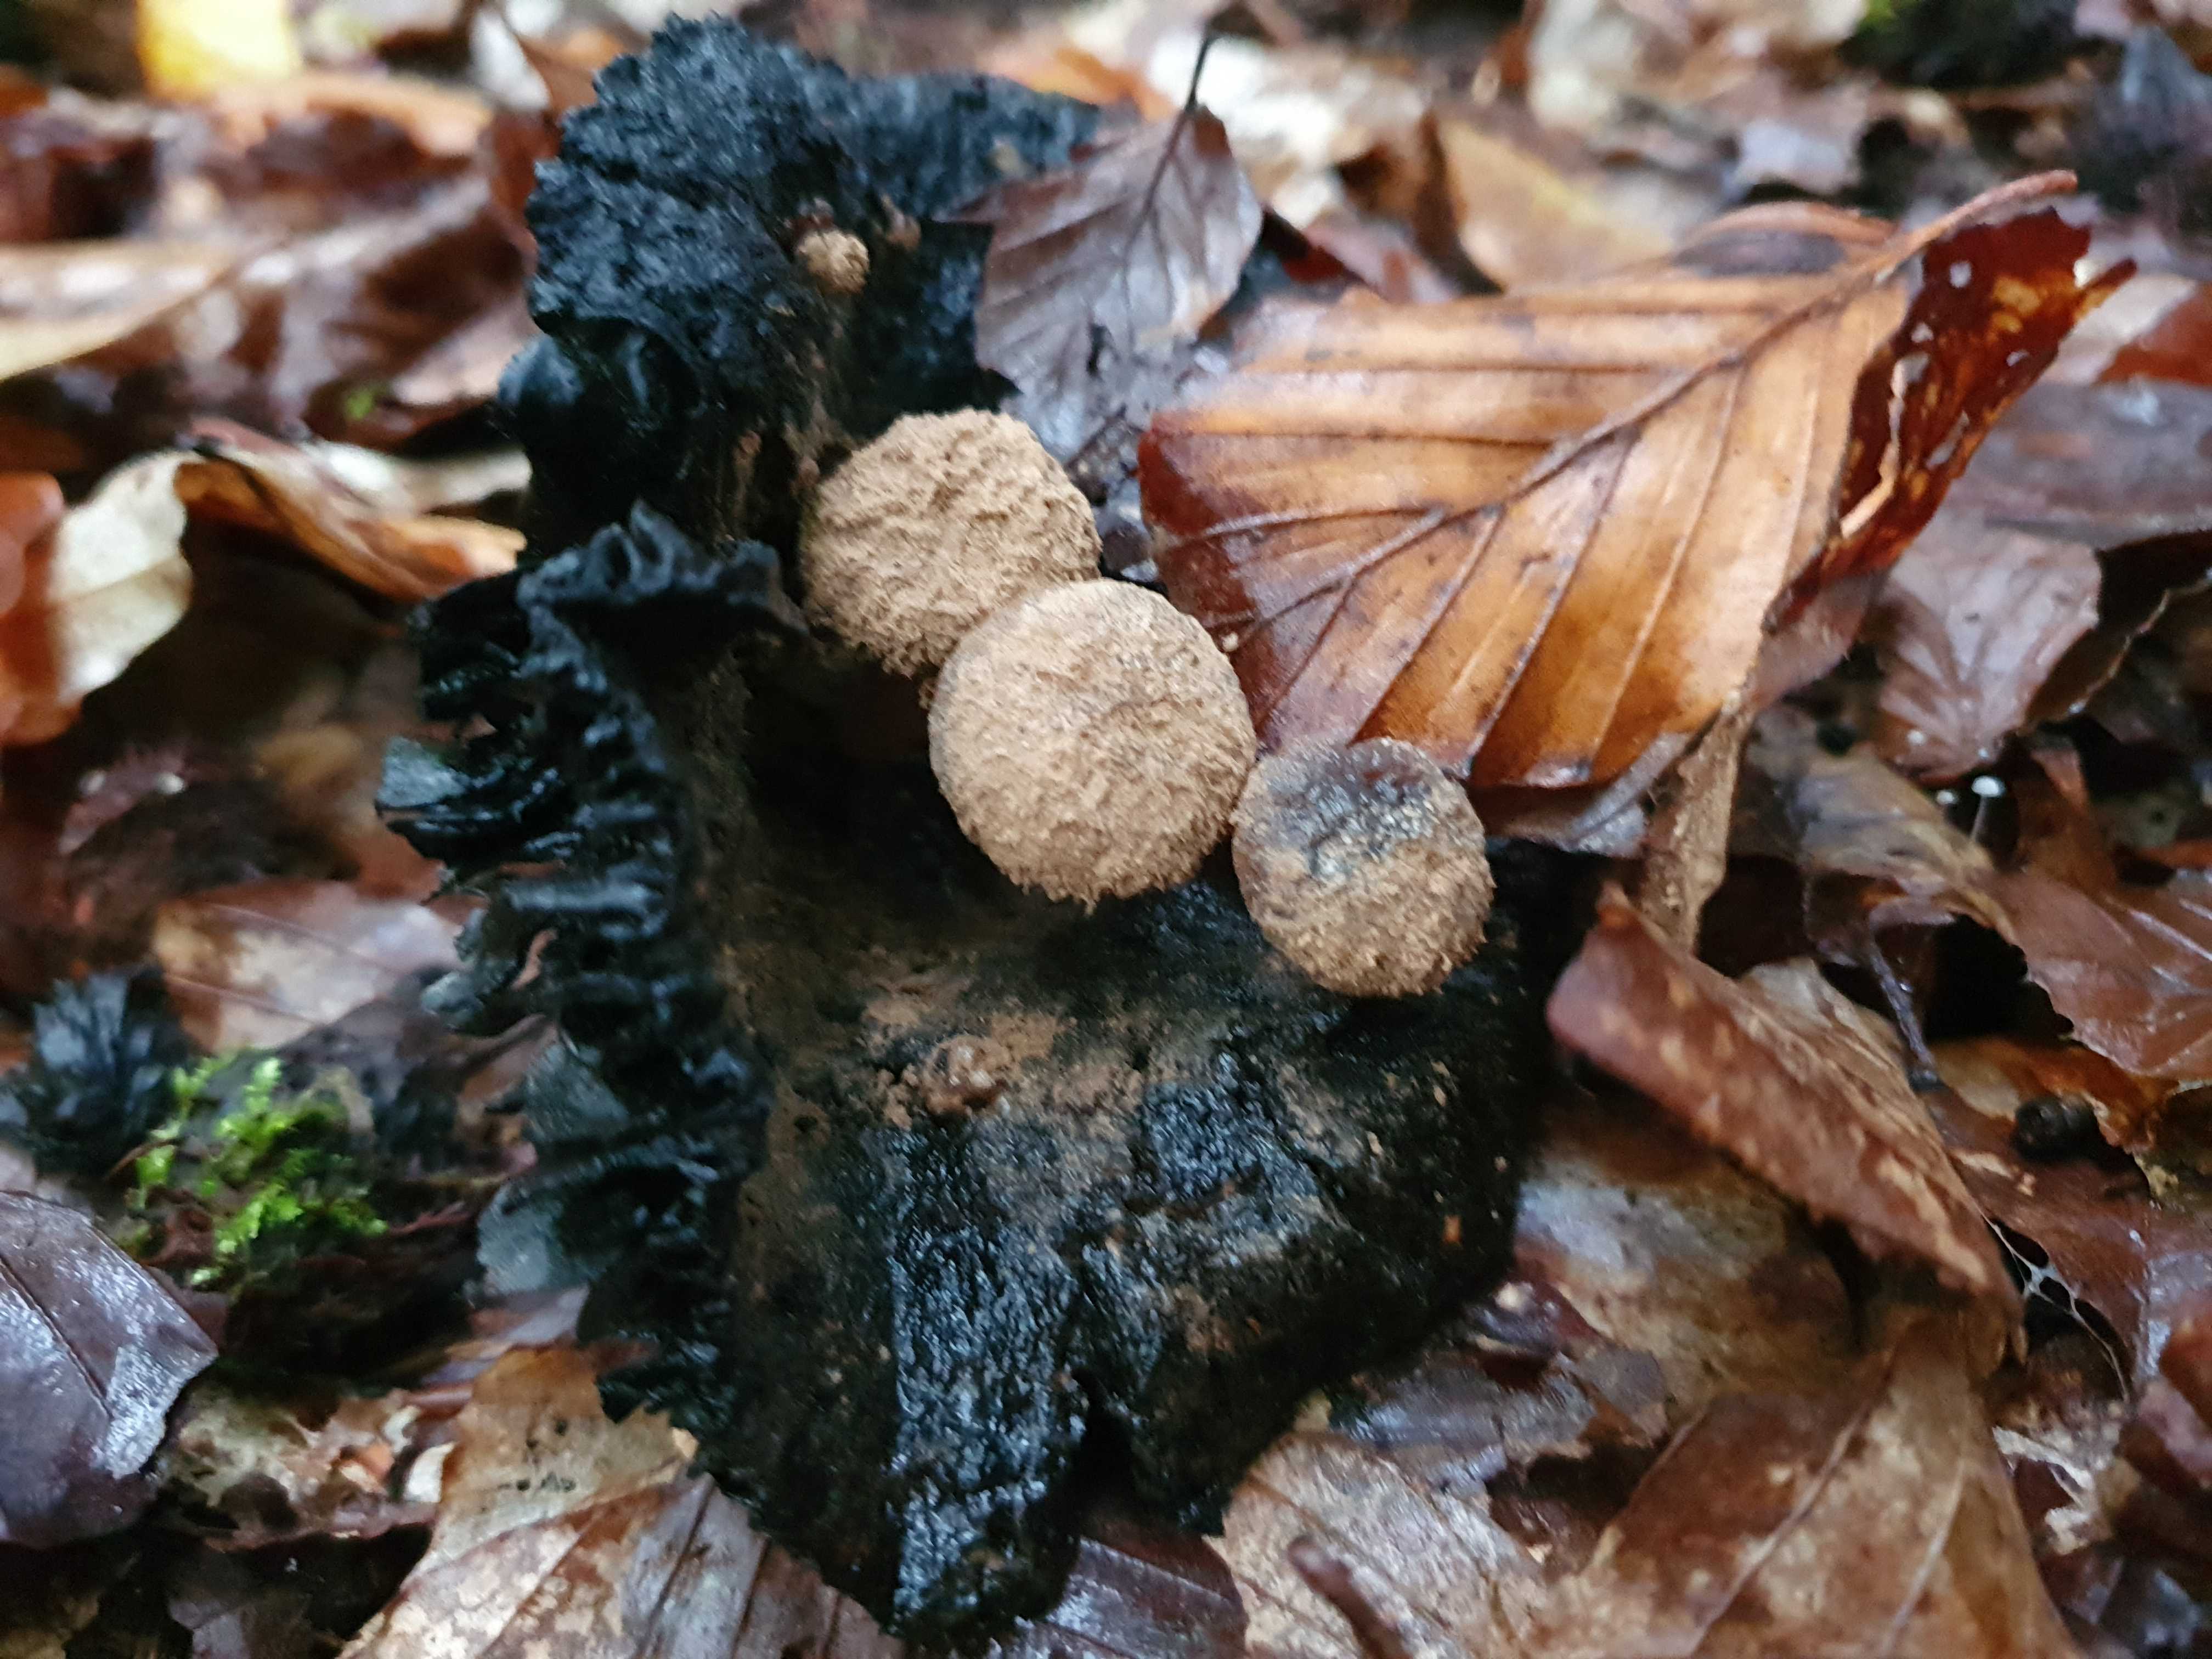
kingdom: Fungi
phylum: Basidiomycota
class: Agaricomycetes
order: Agaricales
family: Lyophyllaceae
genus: Asterophora
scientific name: Asterophora lycoperdoides
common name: brunpudret snyltehat
